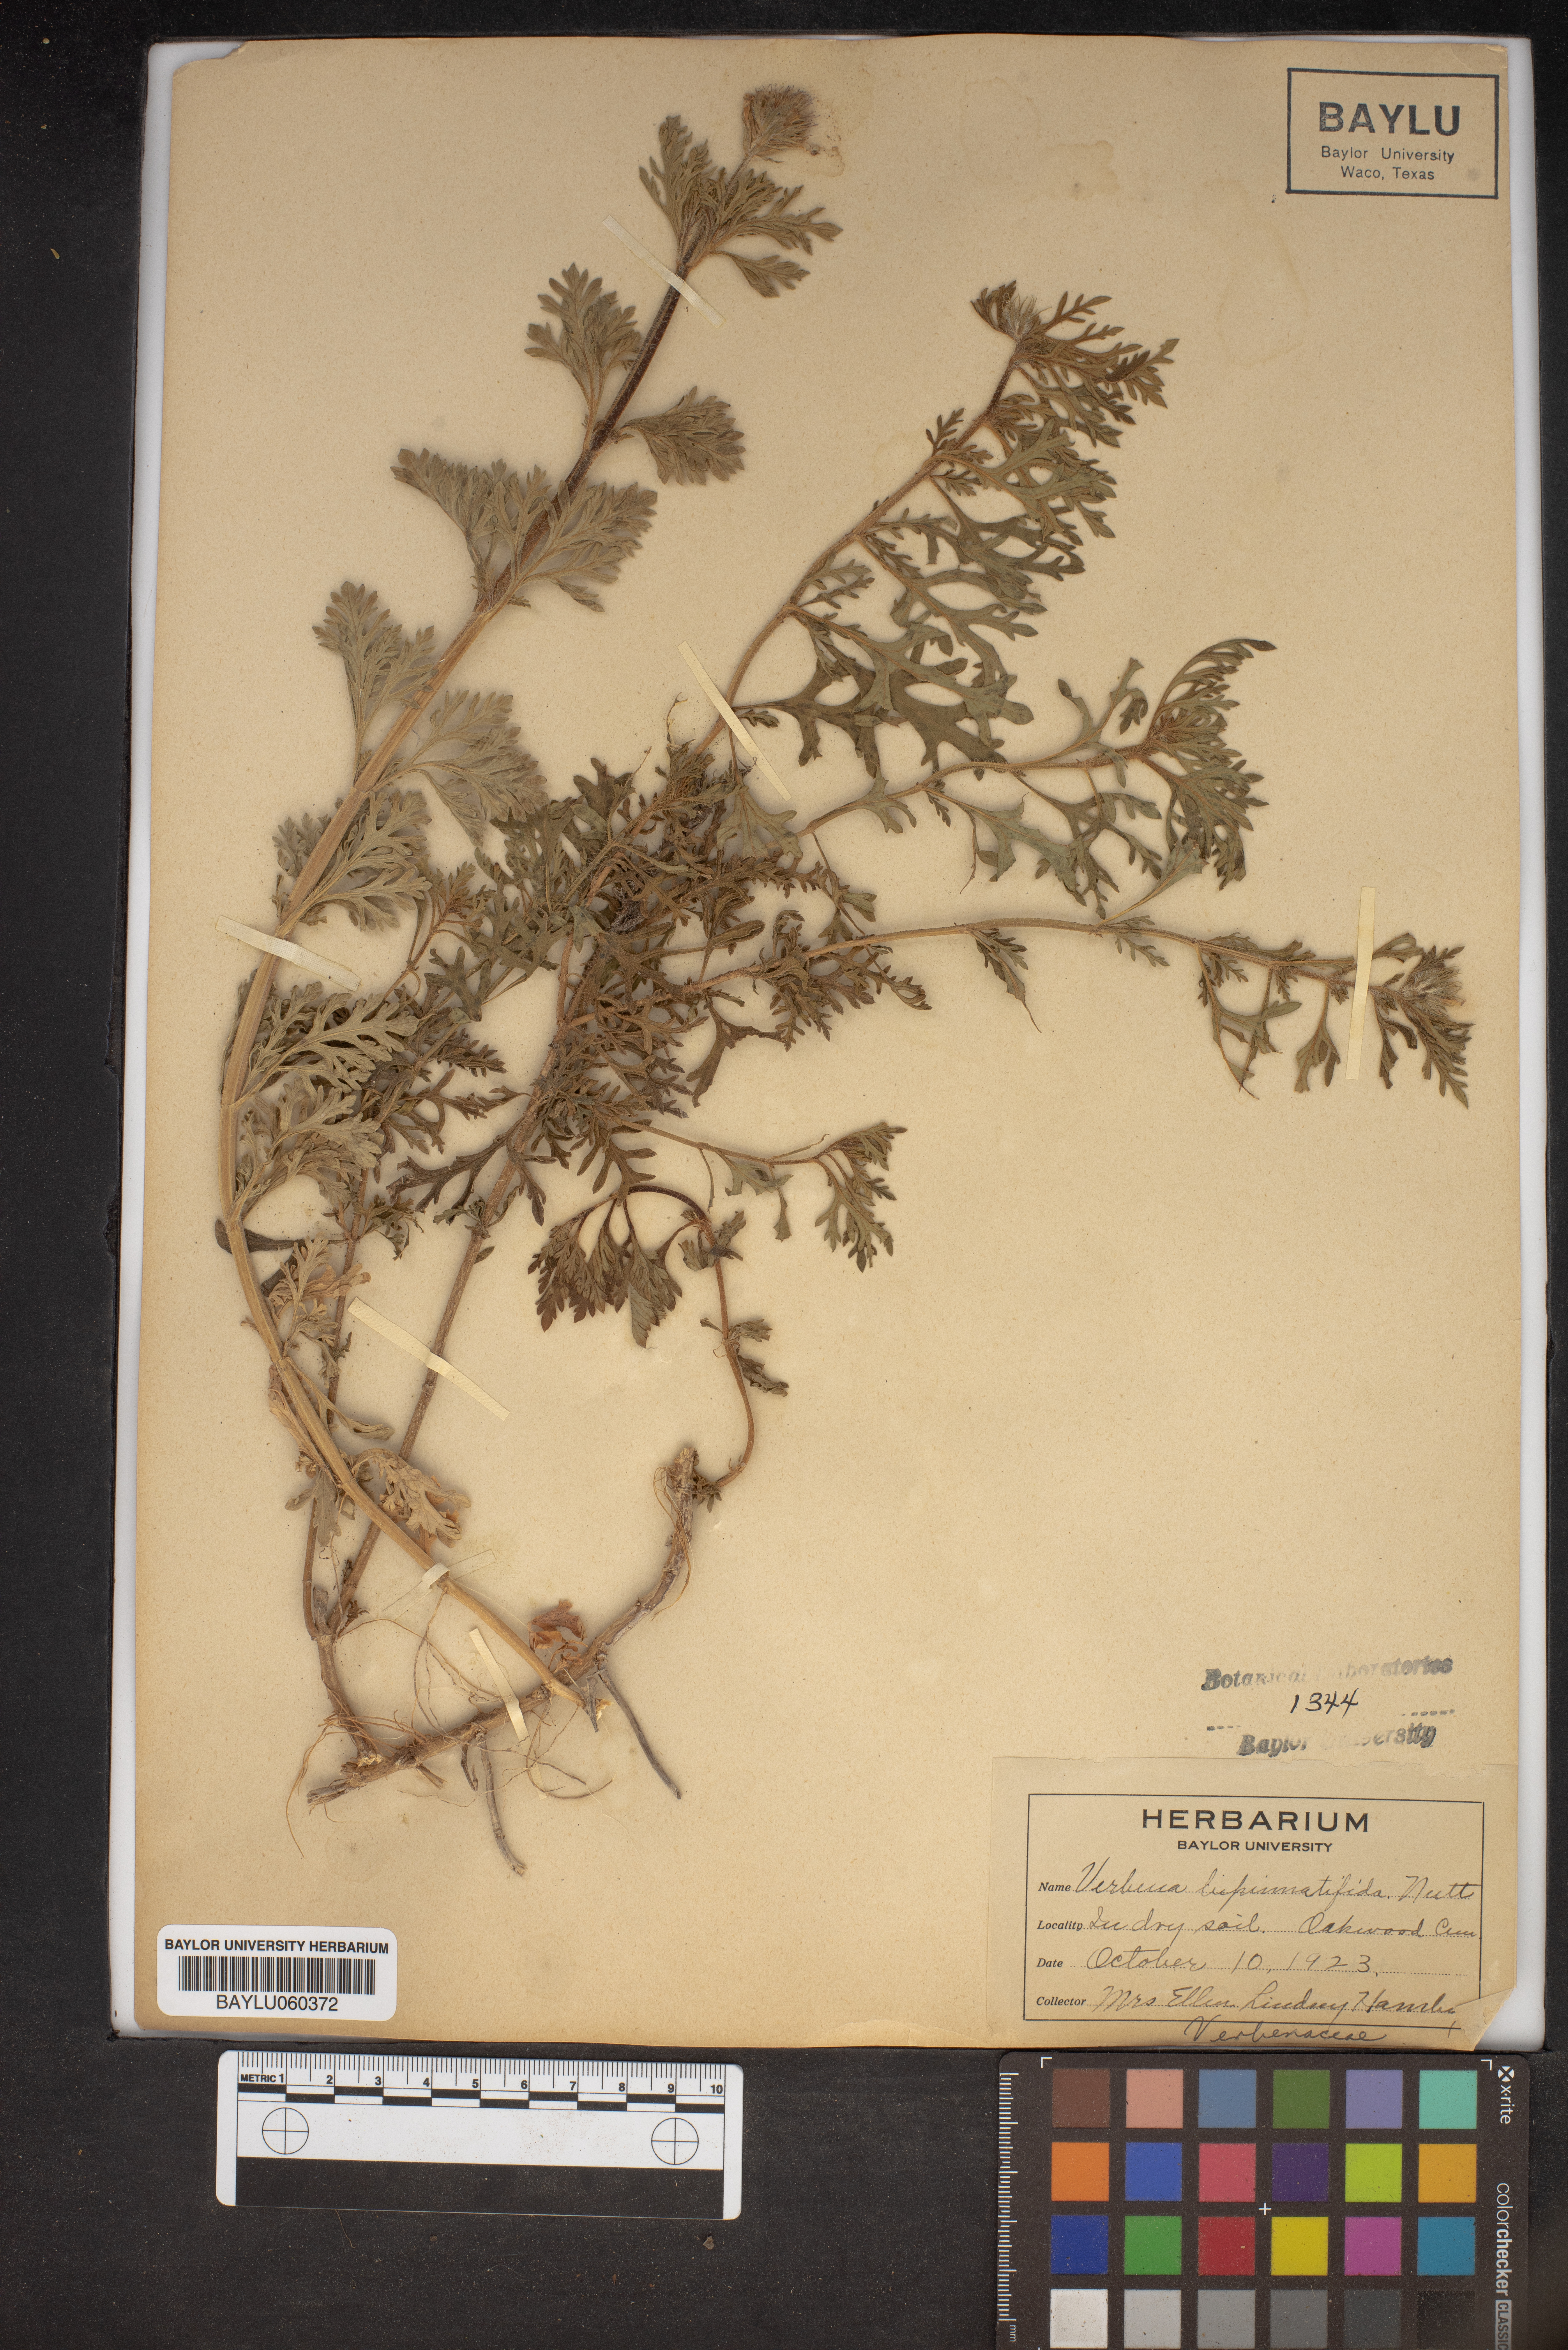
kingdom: Plantae
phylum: Tracheophyta
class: Magnoliopsida
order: Lamiales
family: Verbenaceae
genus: Verbena
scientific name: Verbena bipinnatifida
